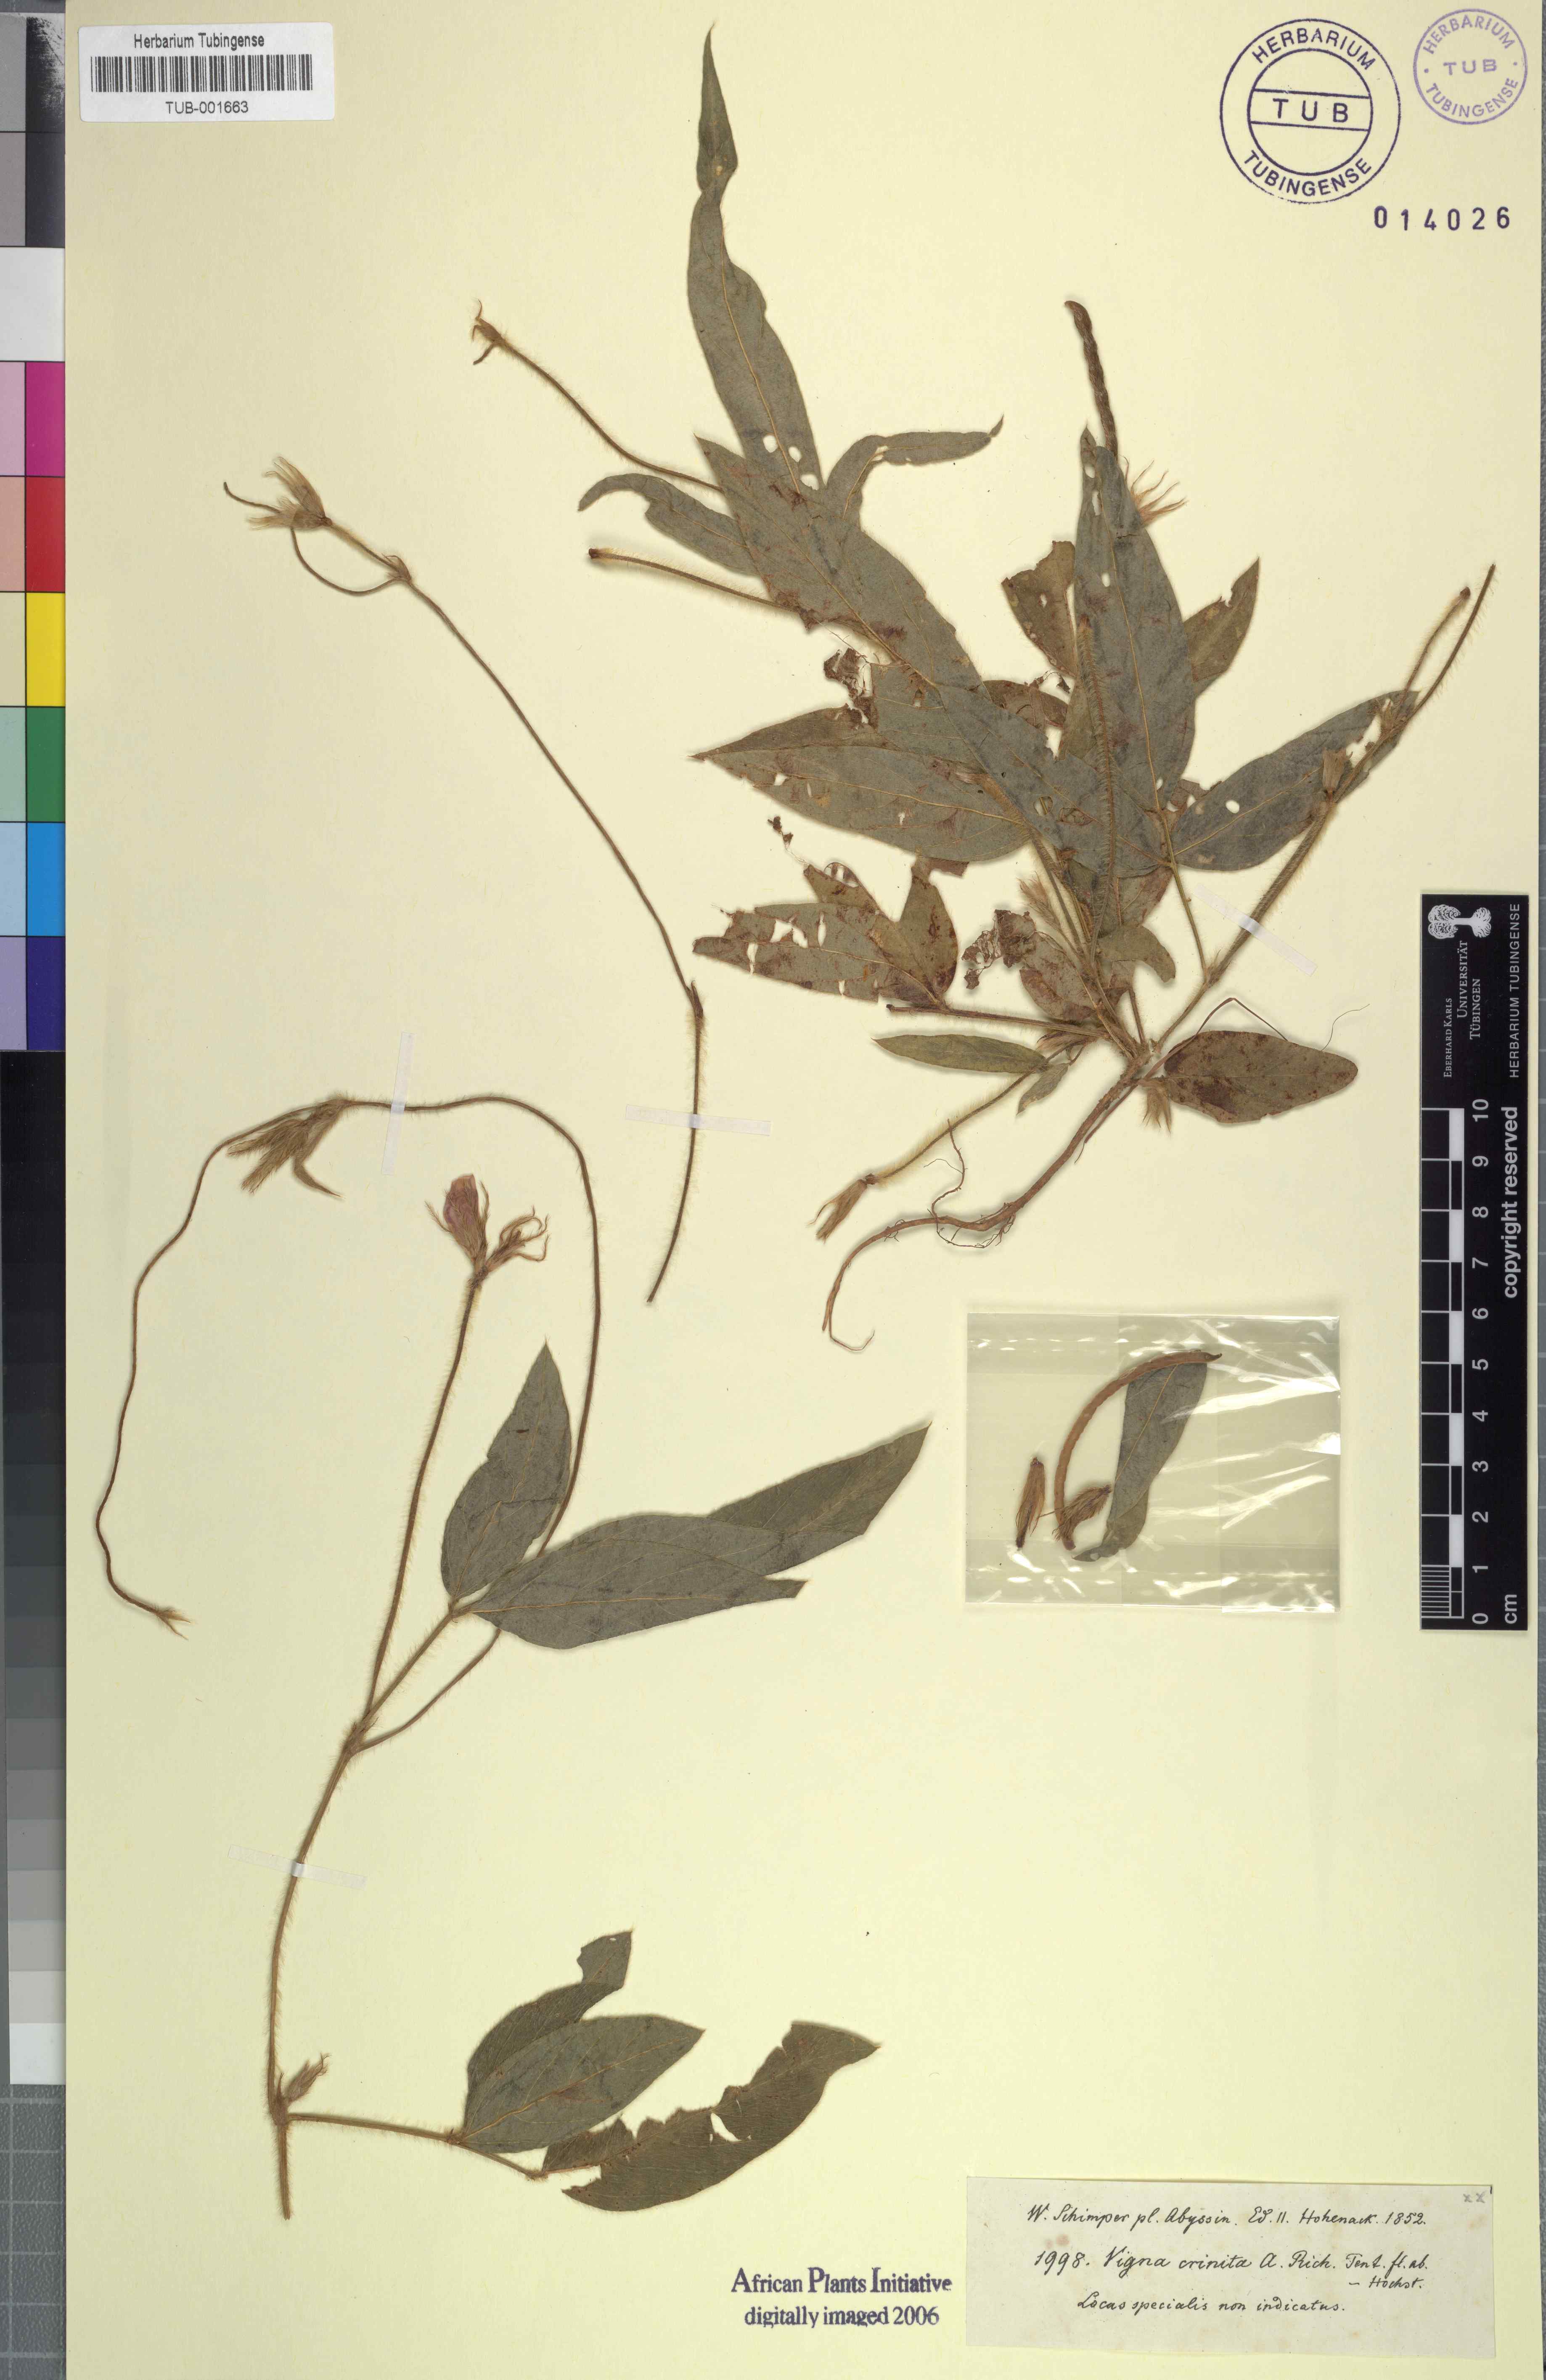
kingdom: Plantae
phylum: Tracheophyta
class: Magnoliopsida
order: Fabales
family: Fabaceae
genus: Vigna
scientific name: Vigna vexillata
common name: Zombi pea
